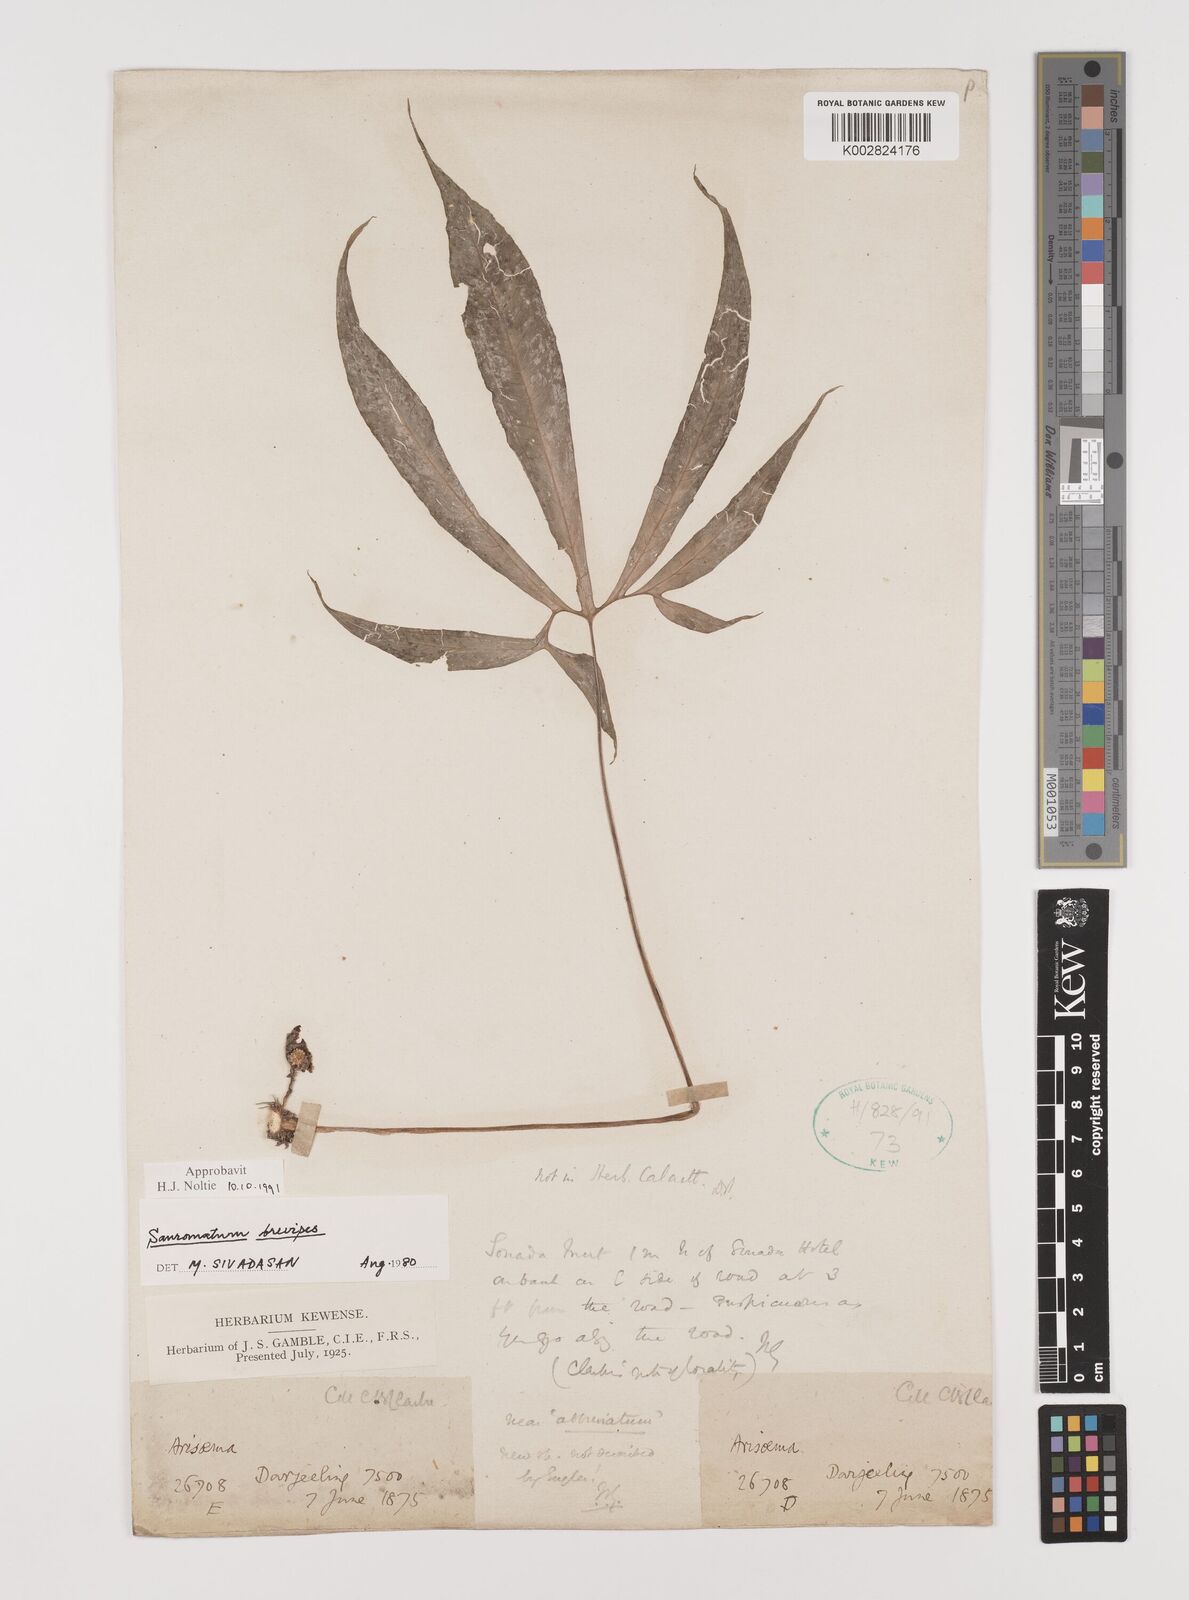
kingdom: Plantae
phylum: Tracheophyta
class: Liliopsida
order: Alismatales
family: Araceae
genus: Sauromatum
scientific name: Sauromatum brevipes
